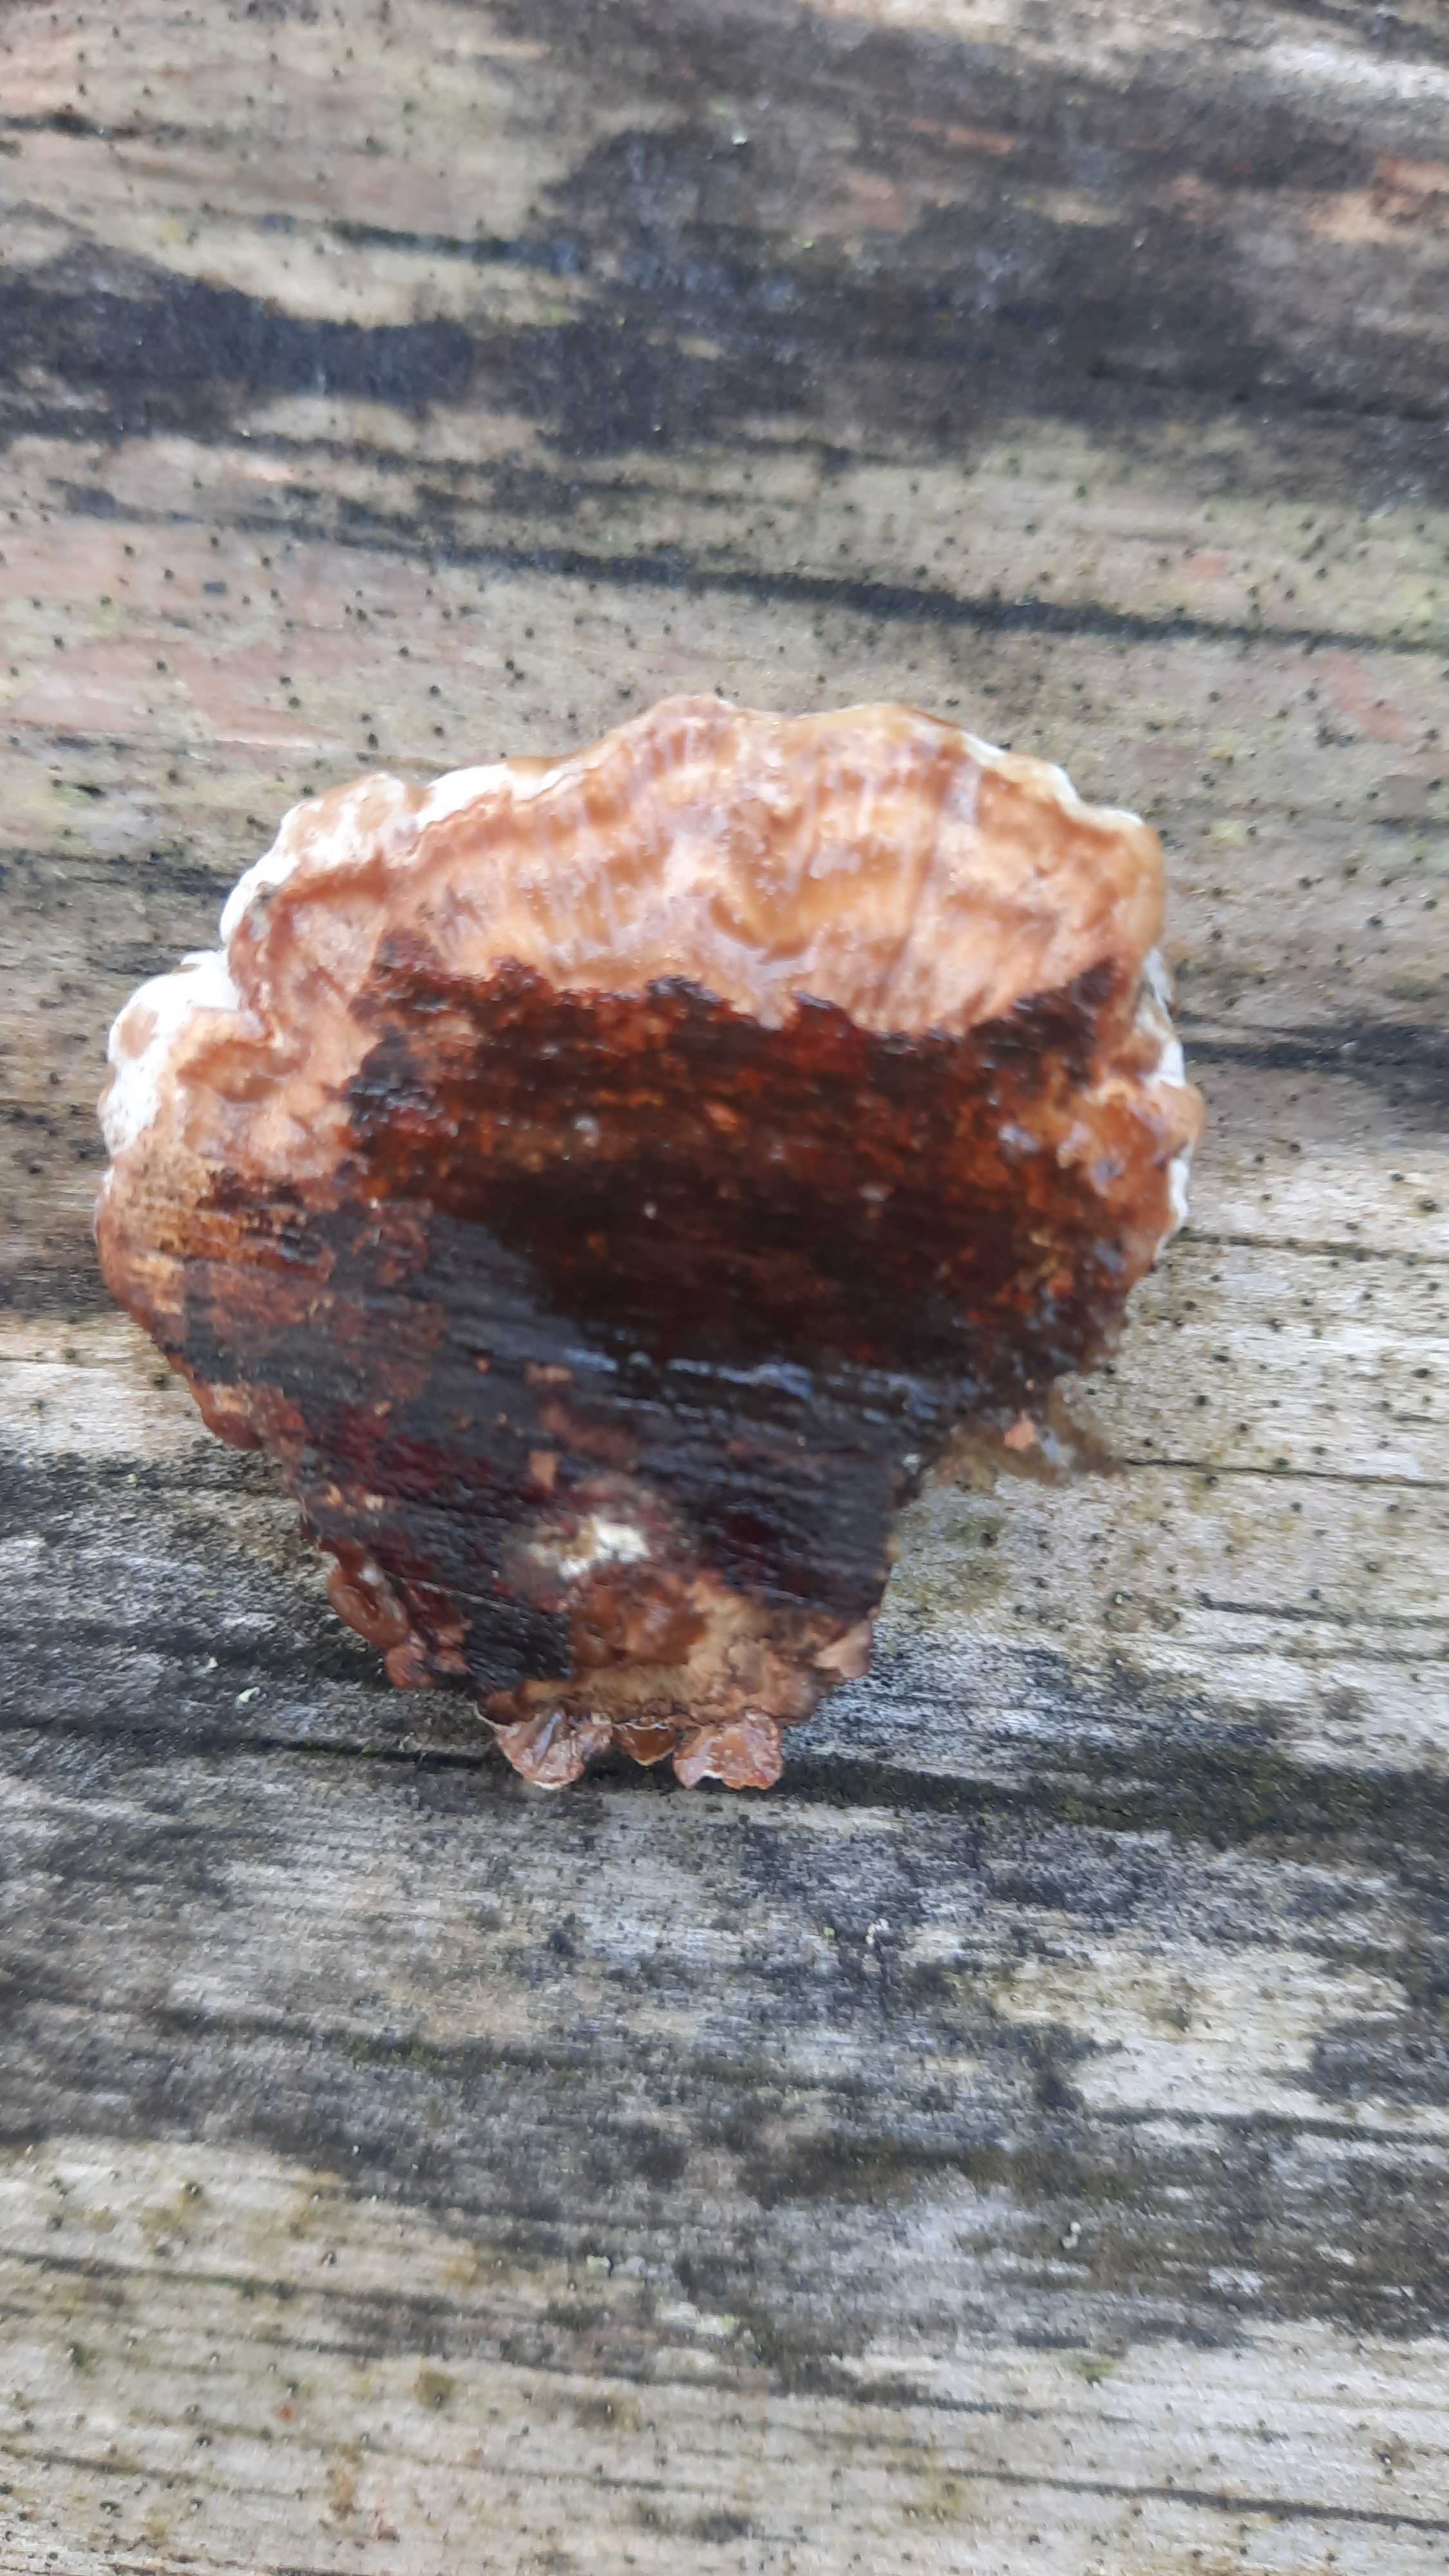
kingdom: Fungi
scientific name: Fungi
